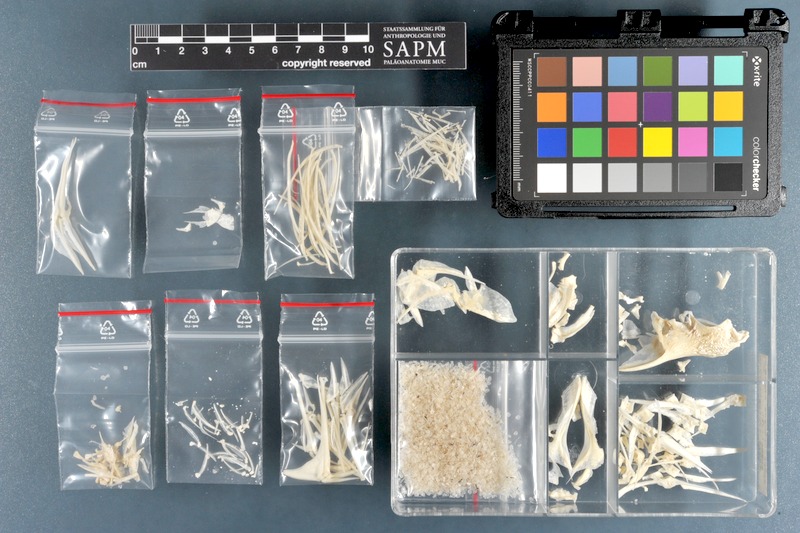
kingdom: Animalia
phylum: Chordata
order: Perciformes
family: Scatophagidae
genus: Scatophagus
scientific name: Scatophagus argus
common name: Spotted scat
